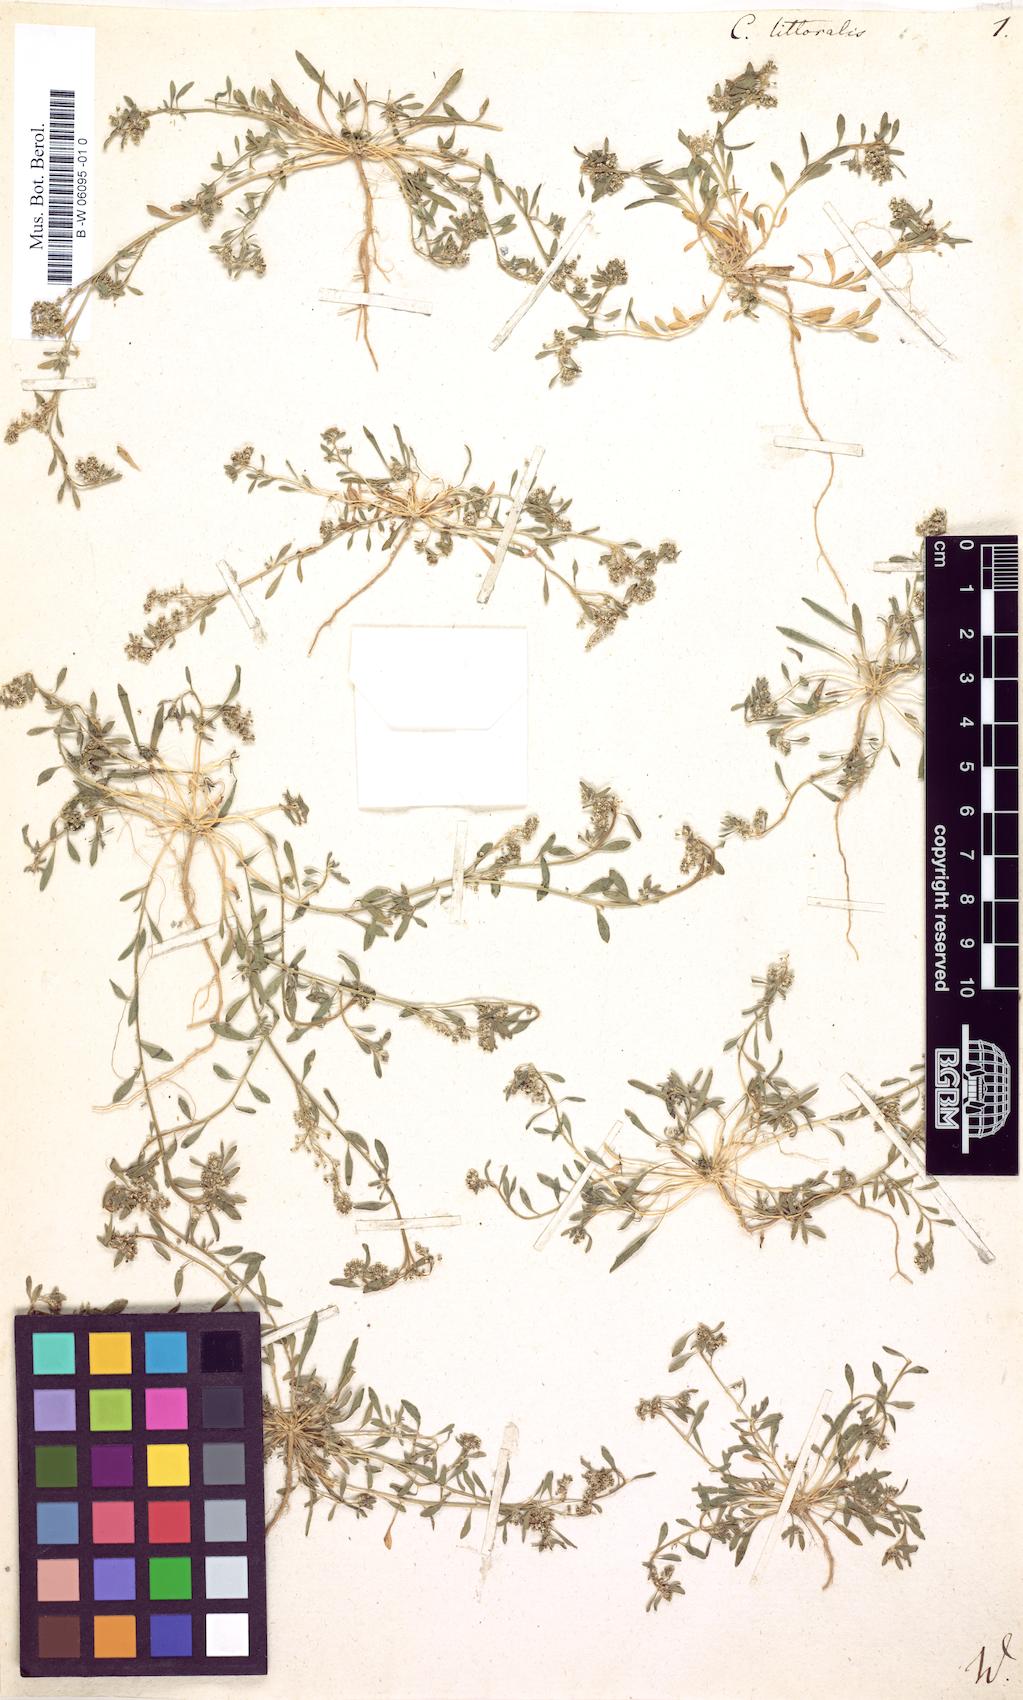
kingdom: Plantae
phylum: Tracheophyta
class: Magnoliopsida
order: Caryophyllales
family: Caryophyllaceae
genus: Corrigiola
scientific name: Corrigiola littoralis
